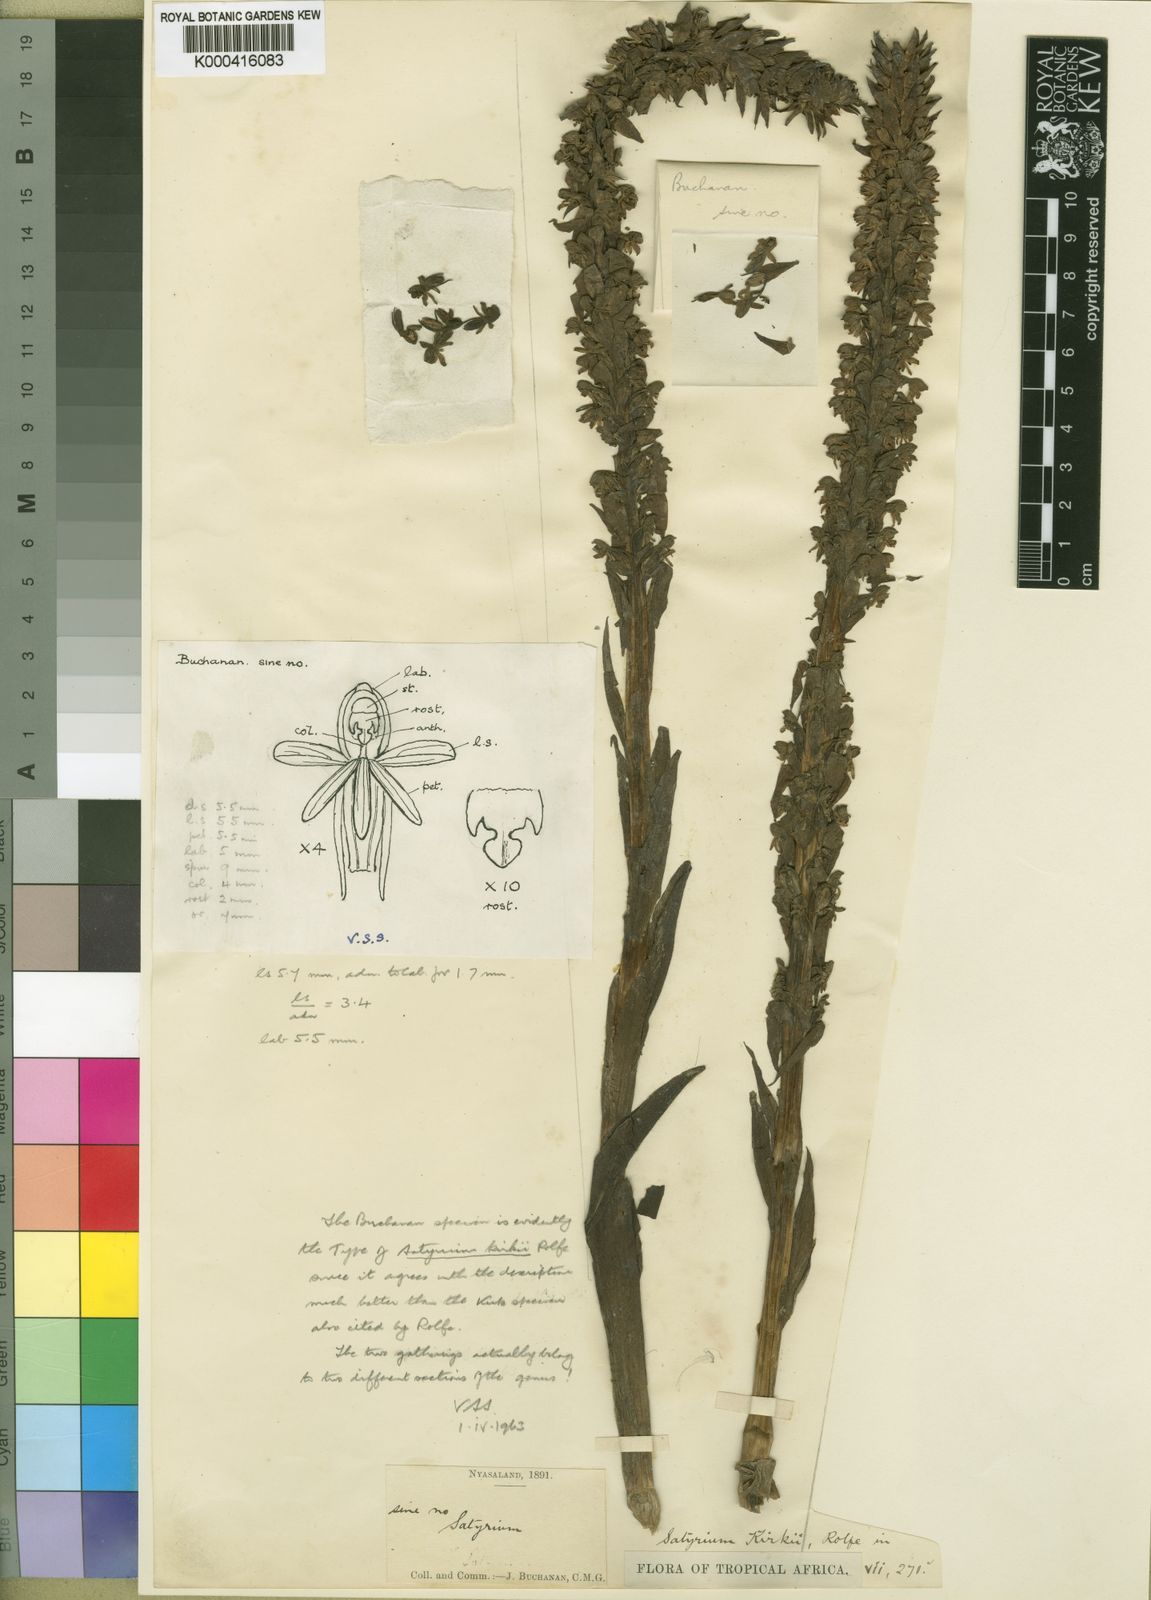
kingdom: Plantae
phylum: Tracheophyta
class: Liliopsida
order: Asparagales
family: Orchidaceae
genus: Satyrium
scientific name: Satyrium crassicaule
